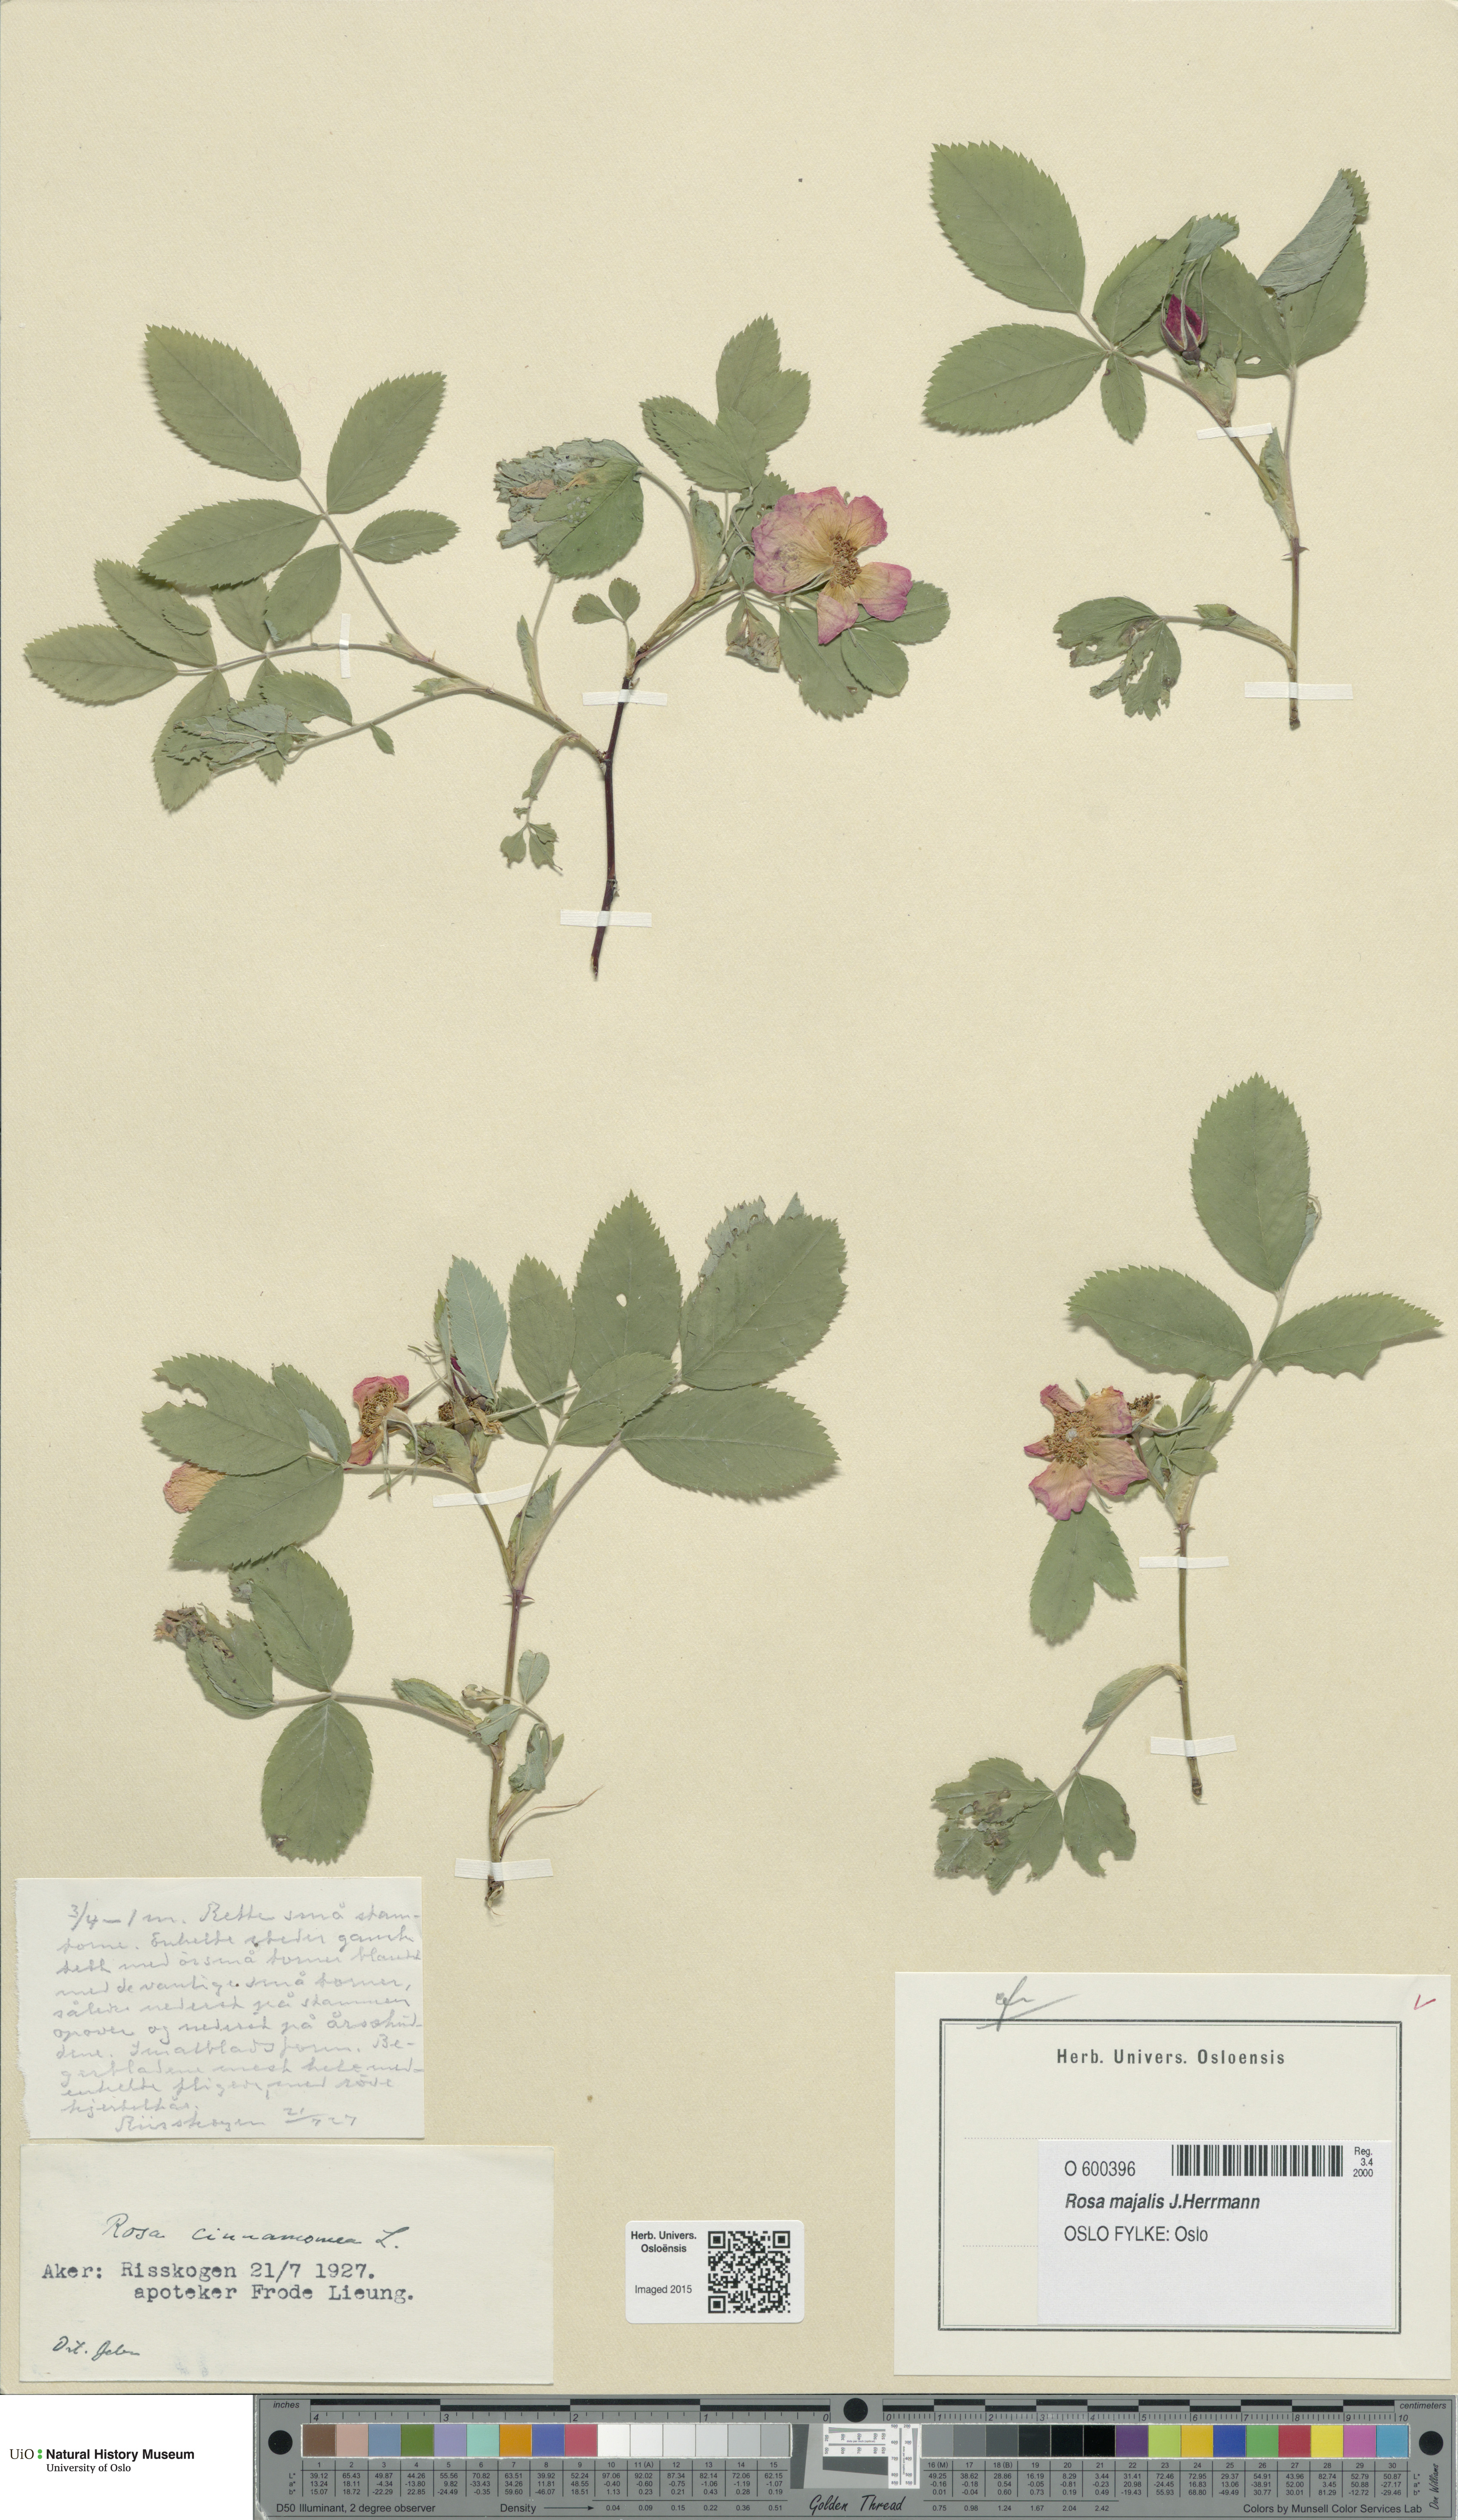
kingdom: Plantae
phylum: Tracheophyta
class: Magnoliopsida
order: Rosales
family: Rosaceae
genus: Rosa
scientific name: Rosa pendulina
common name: Alpine rose
